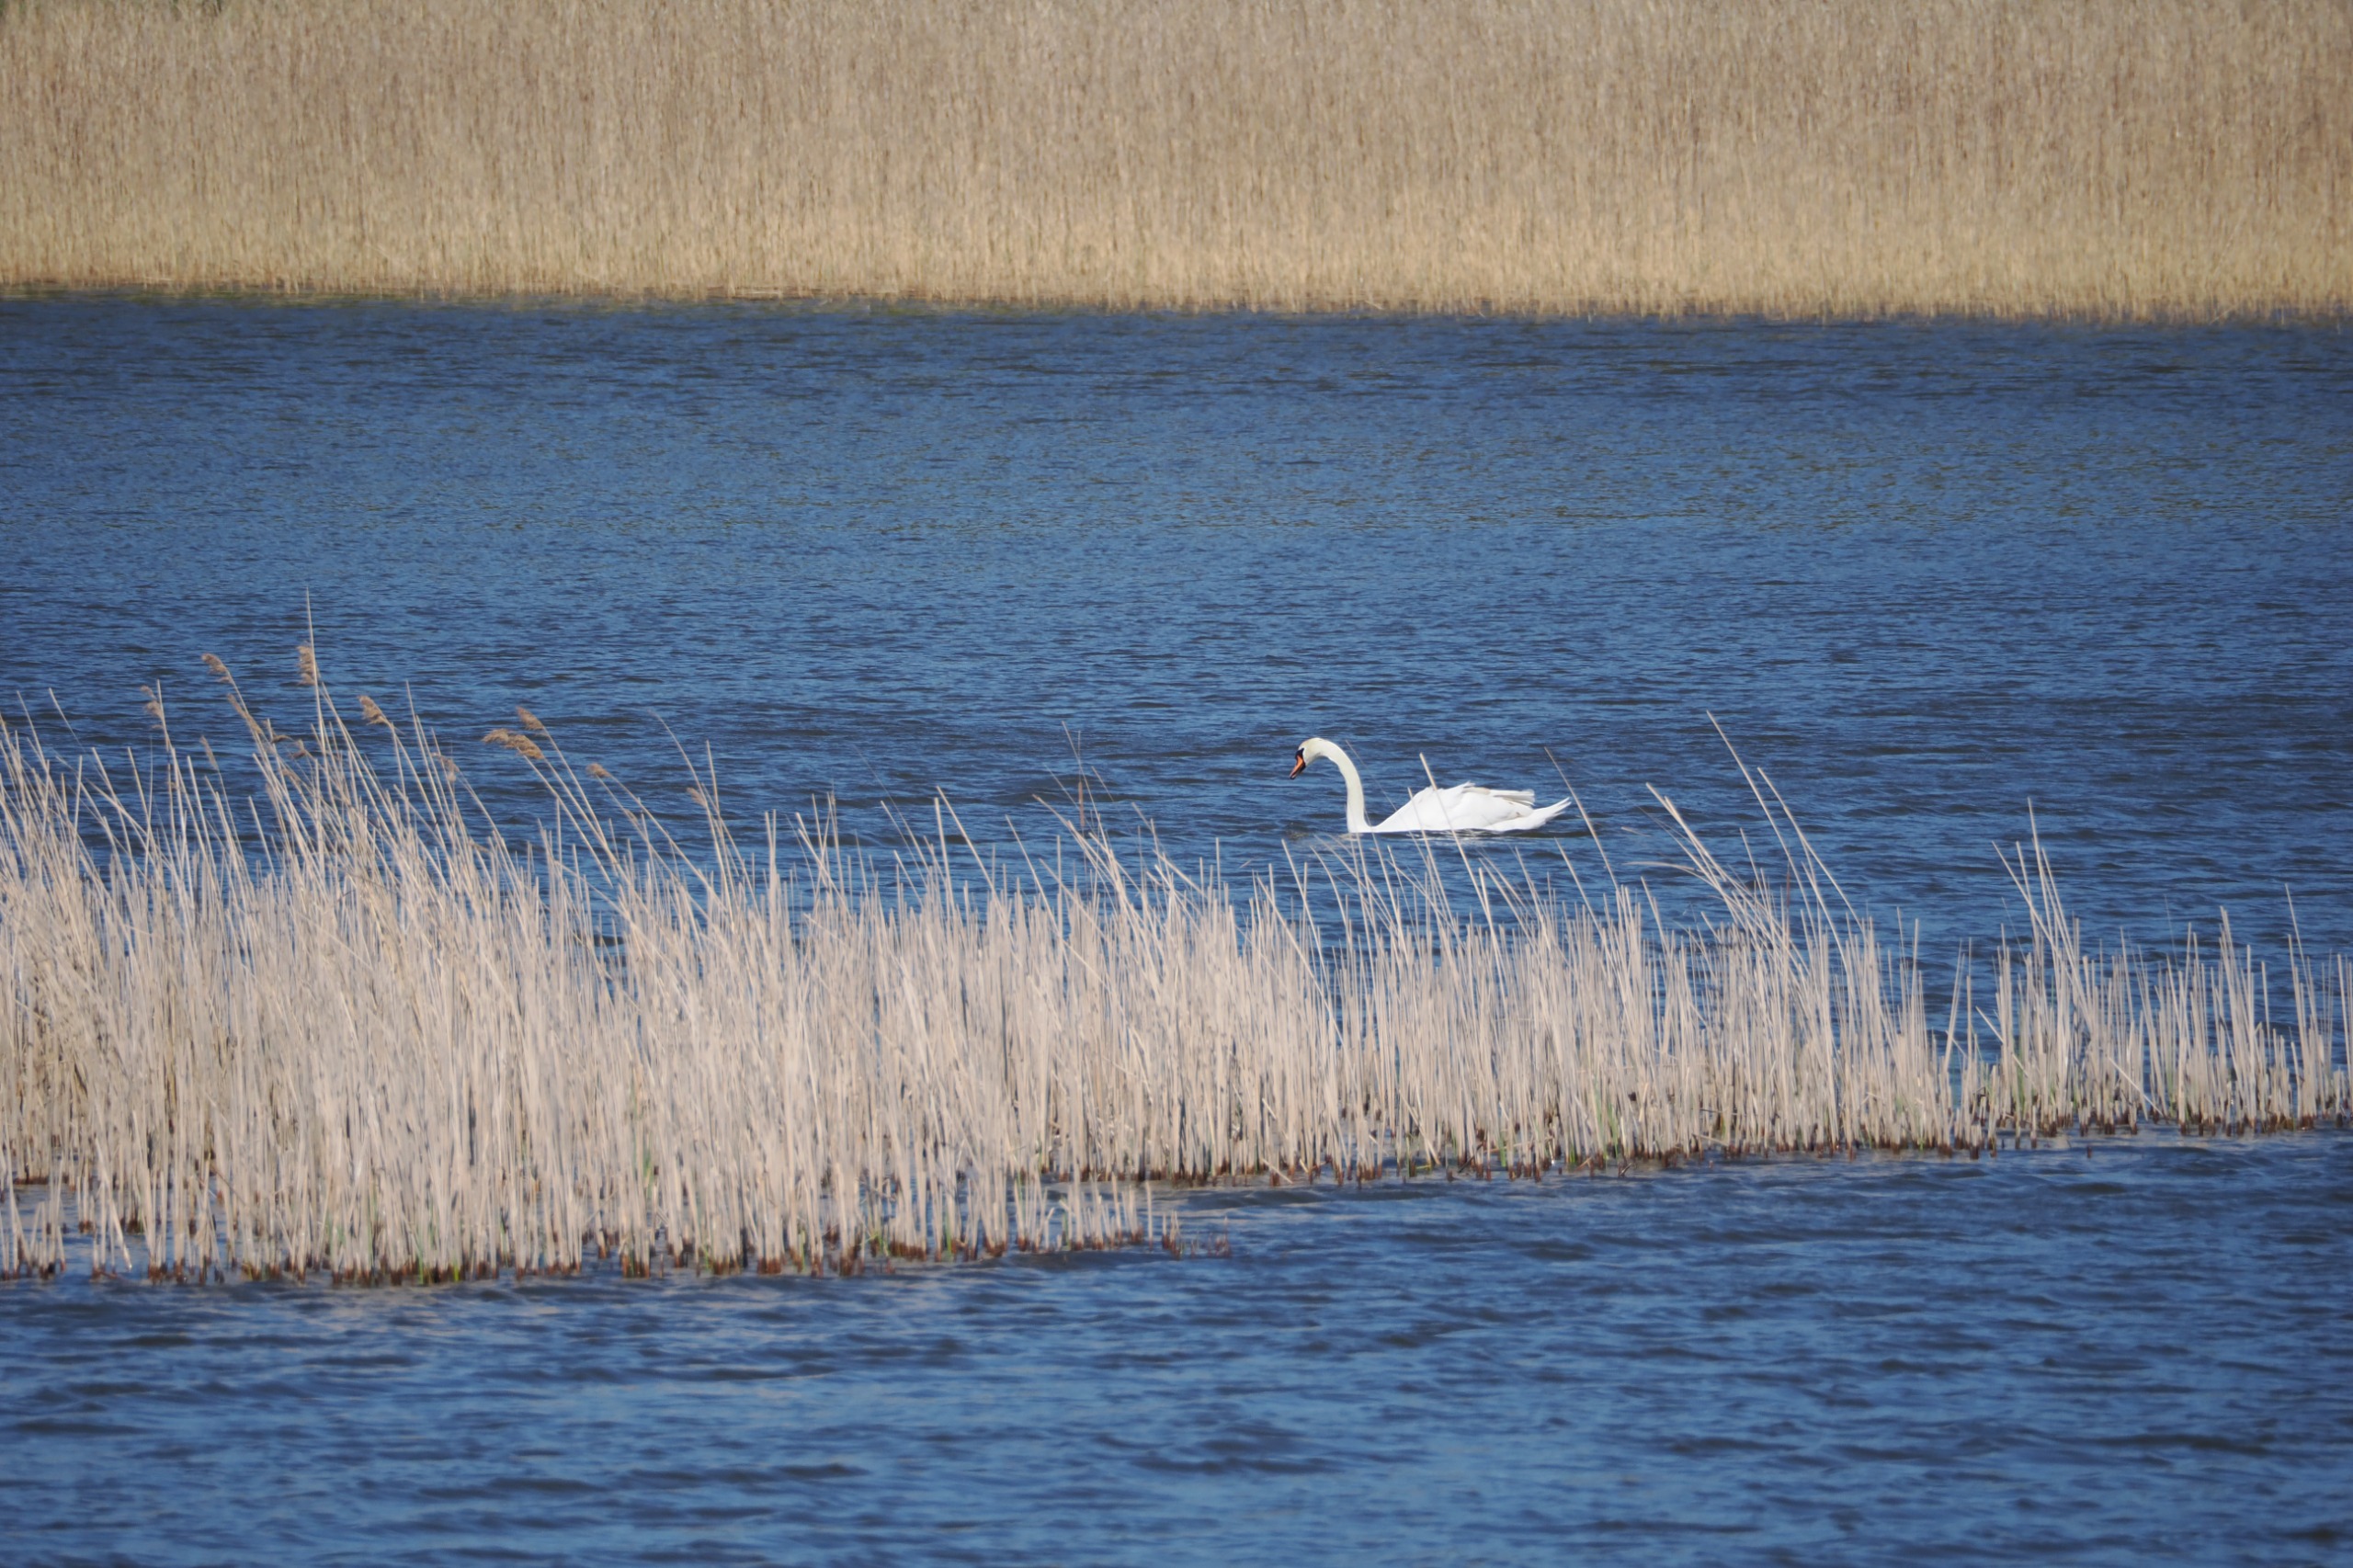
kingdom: Animalia
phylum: Chordata
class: Aves
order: Anseriformes
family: Anatidae
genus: Cygnus
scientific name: Cygnus olor
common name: Knopsvane
